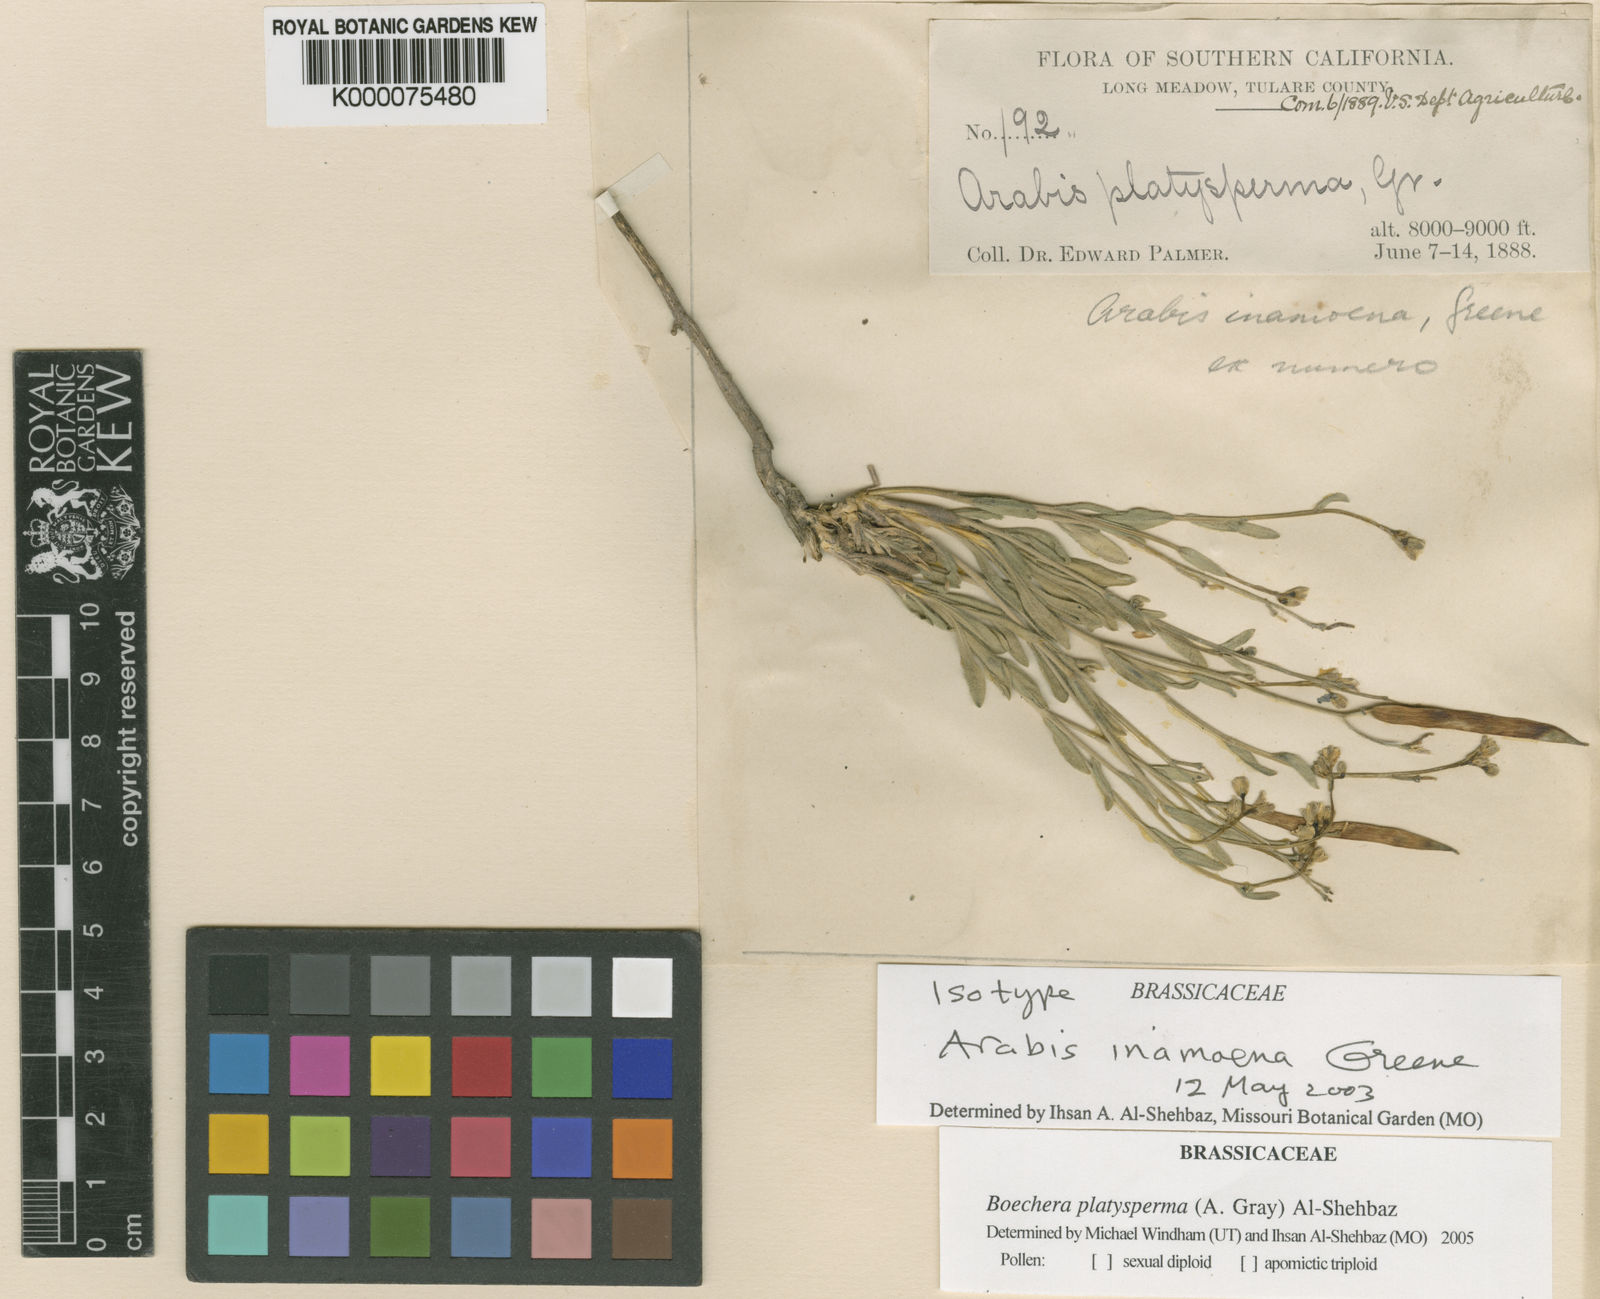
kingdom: Plantae
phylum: Tracheophyta
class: Magnoliopsida
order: Brassicales
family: Brassicaceae
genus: Yosemitea
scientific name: Yosemitea repanda
